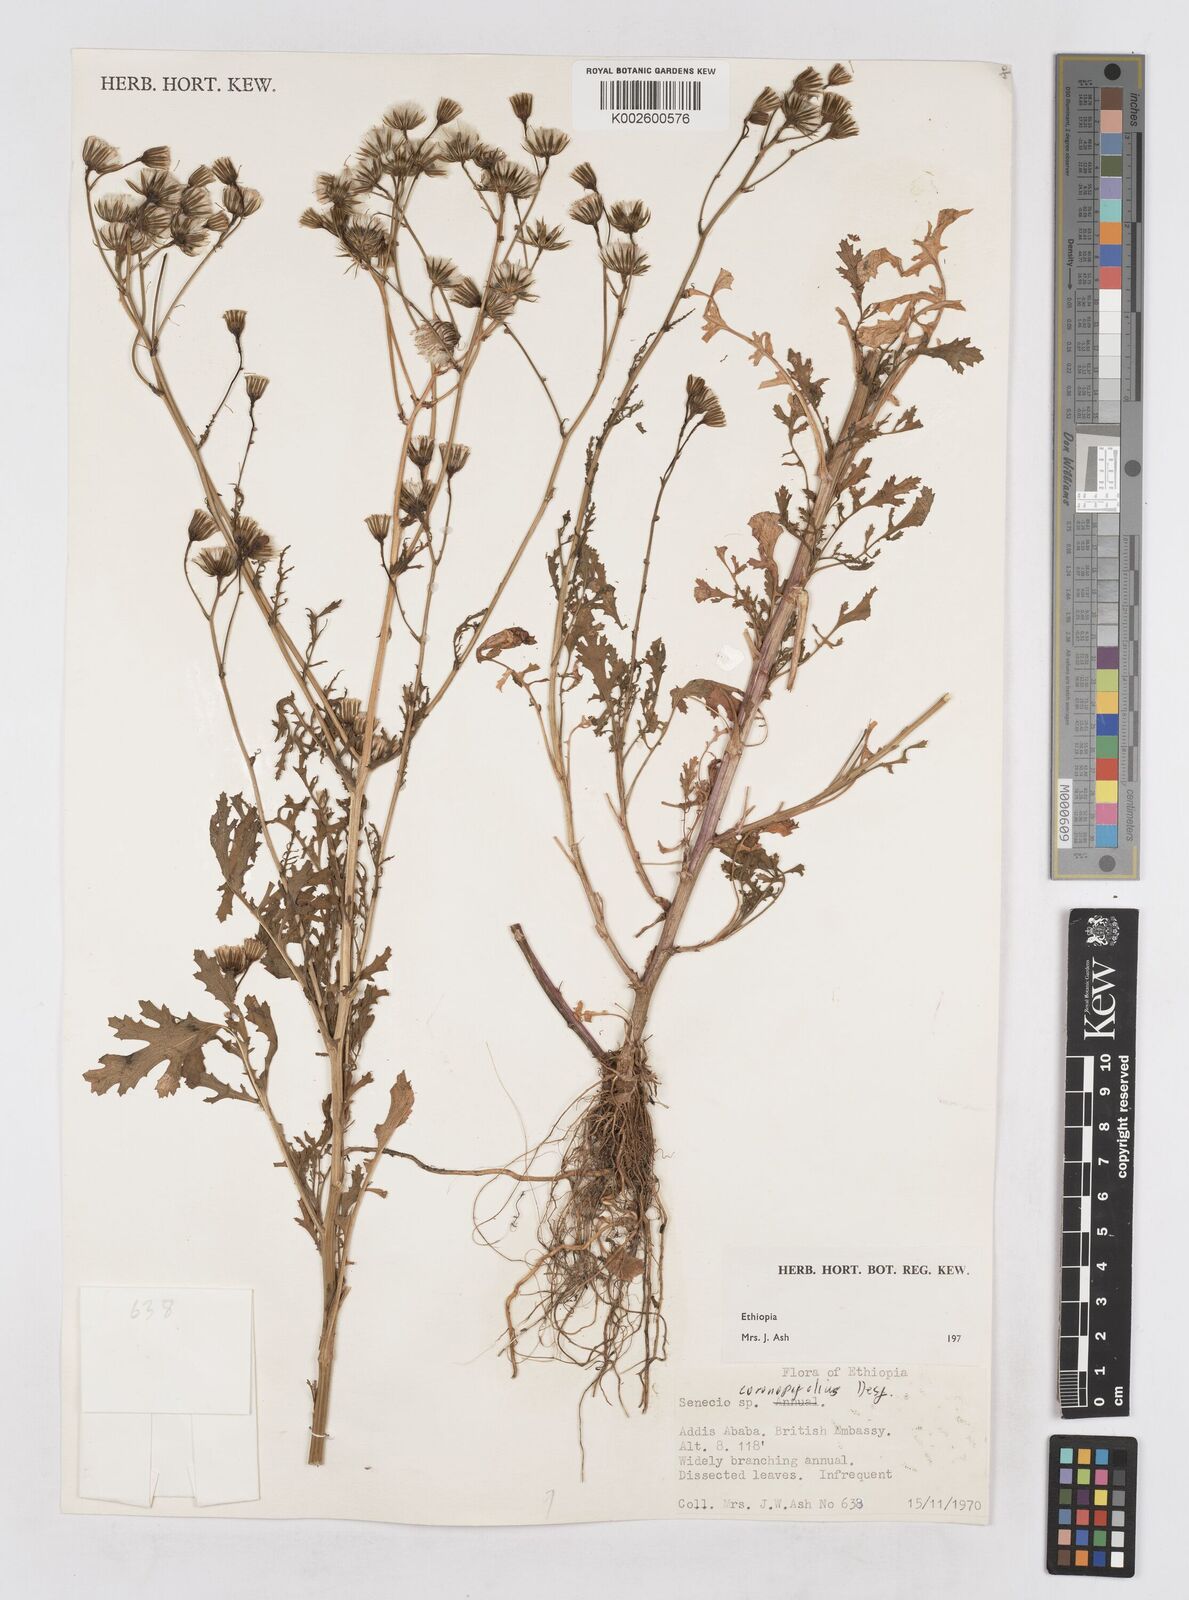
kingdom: Plantae
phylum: Tracheophyta
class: Magnoliopsida
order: Asterales
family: Asteraceae
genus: Senecio
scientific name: Senecio pinnatipartitus
